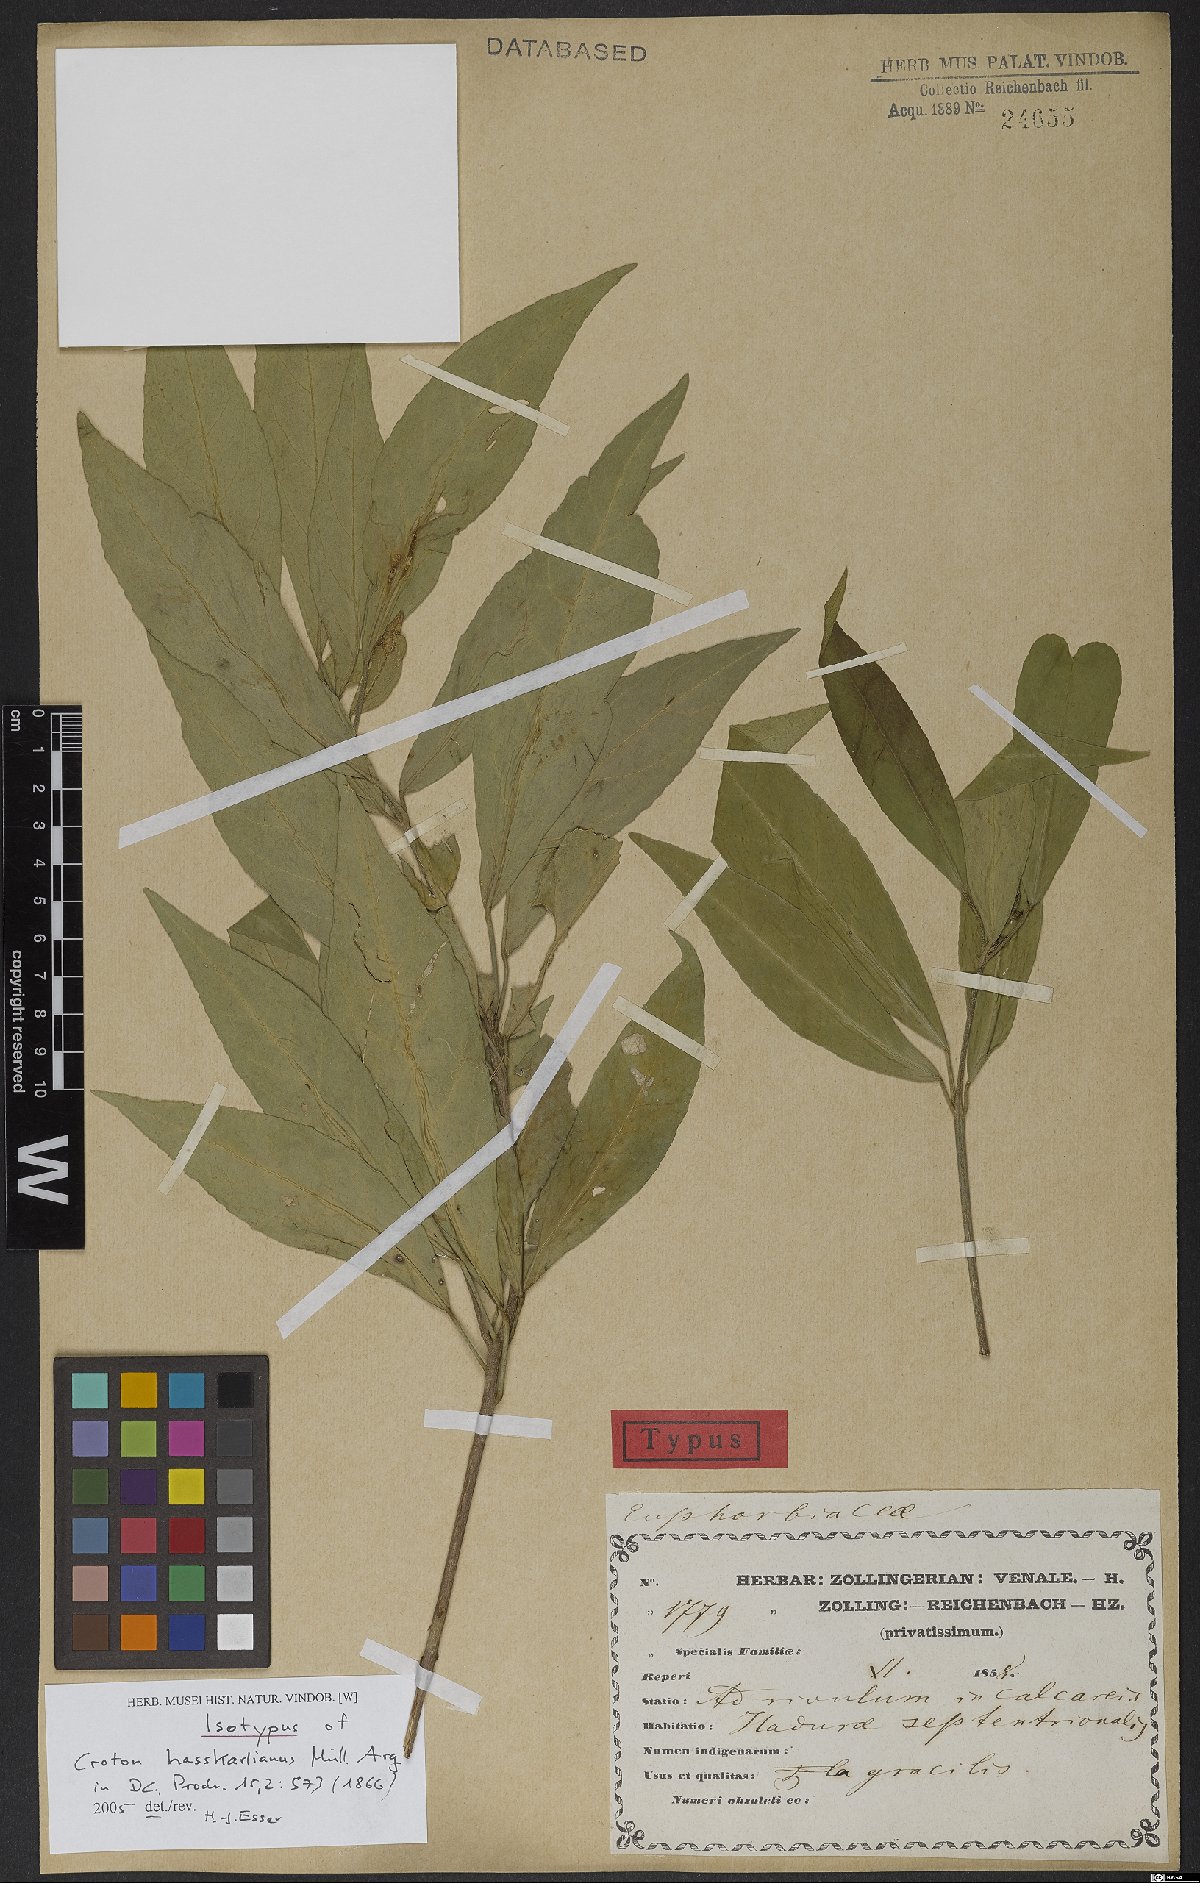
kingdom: Plantae
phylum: Tracheophyta
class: Magnoliopsida
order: Malpighiales
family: Euphorbiaceae
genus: Croton
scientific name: Croton hasskarlianus
